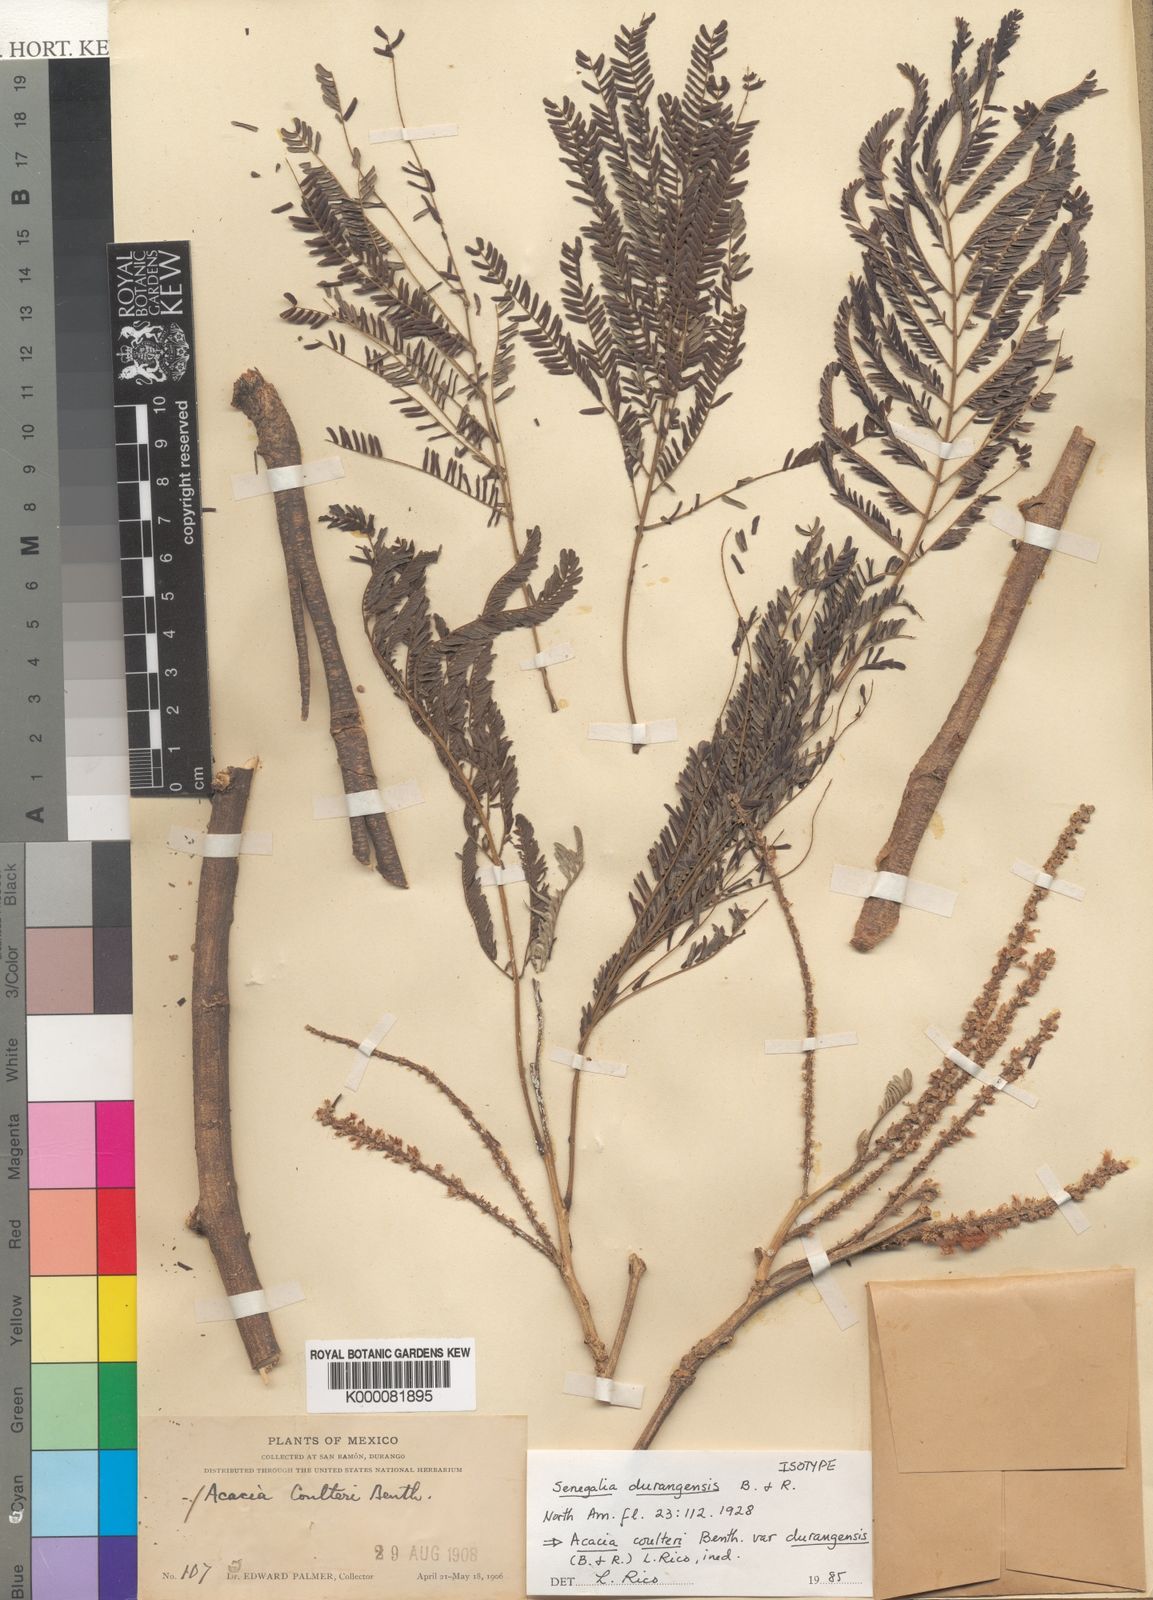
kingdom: Plantae
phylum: Tracheophyta
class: Magnoliopsida
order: Fabales
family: Fabaceae
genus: Mariosousa
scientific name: Mariosousa durangensis
